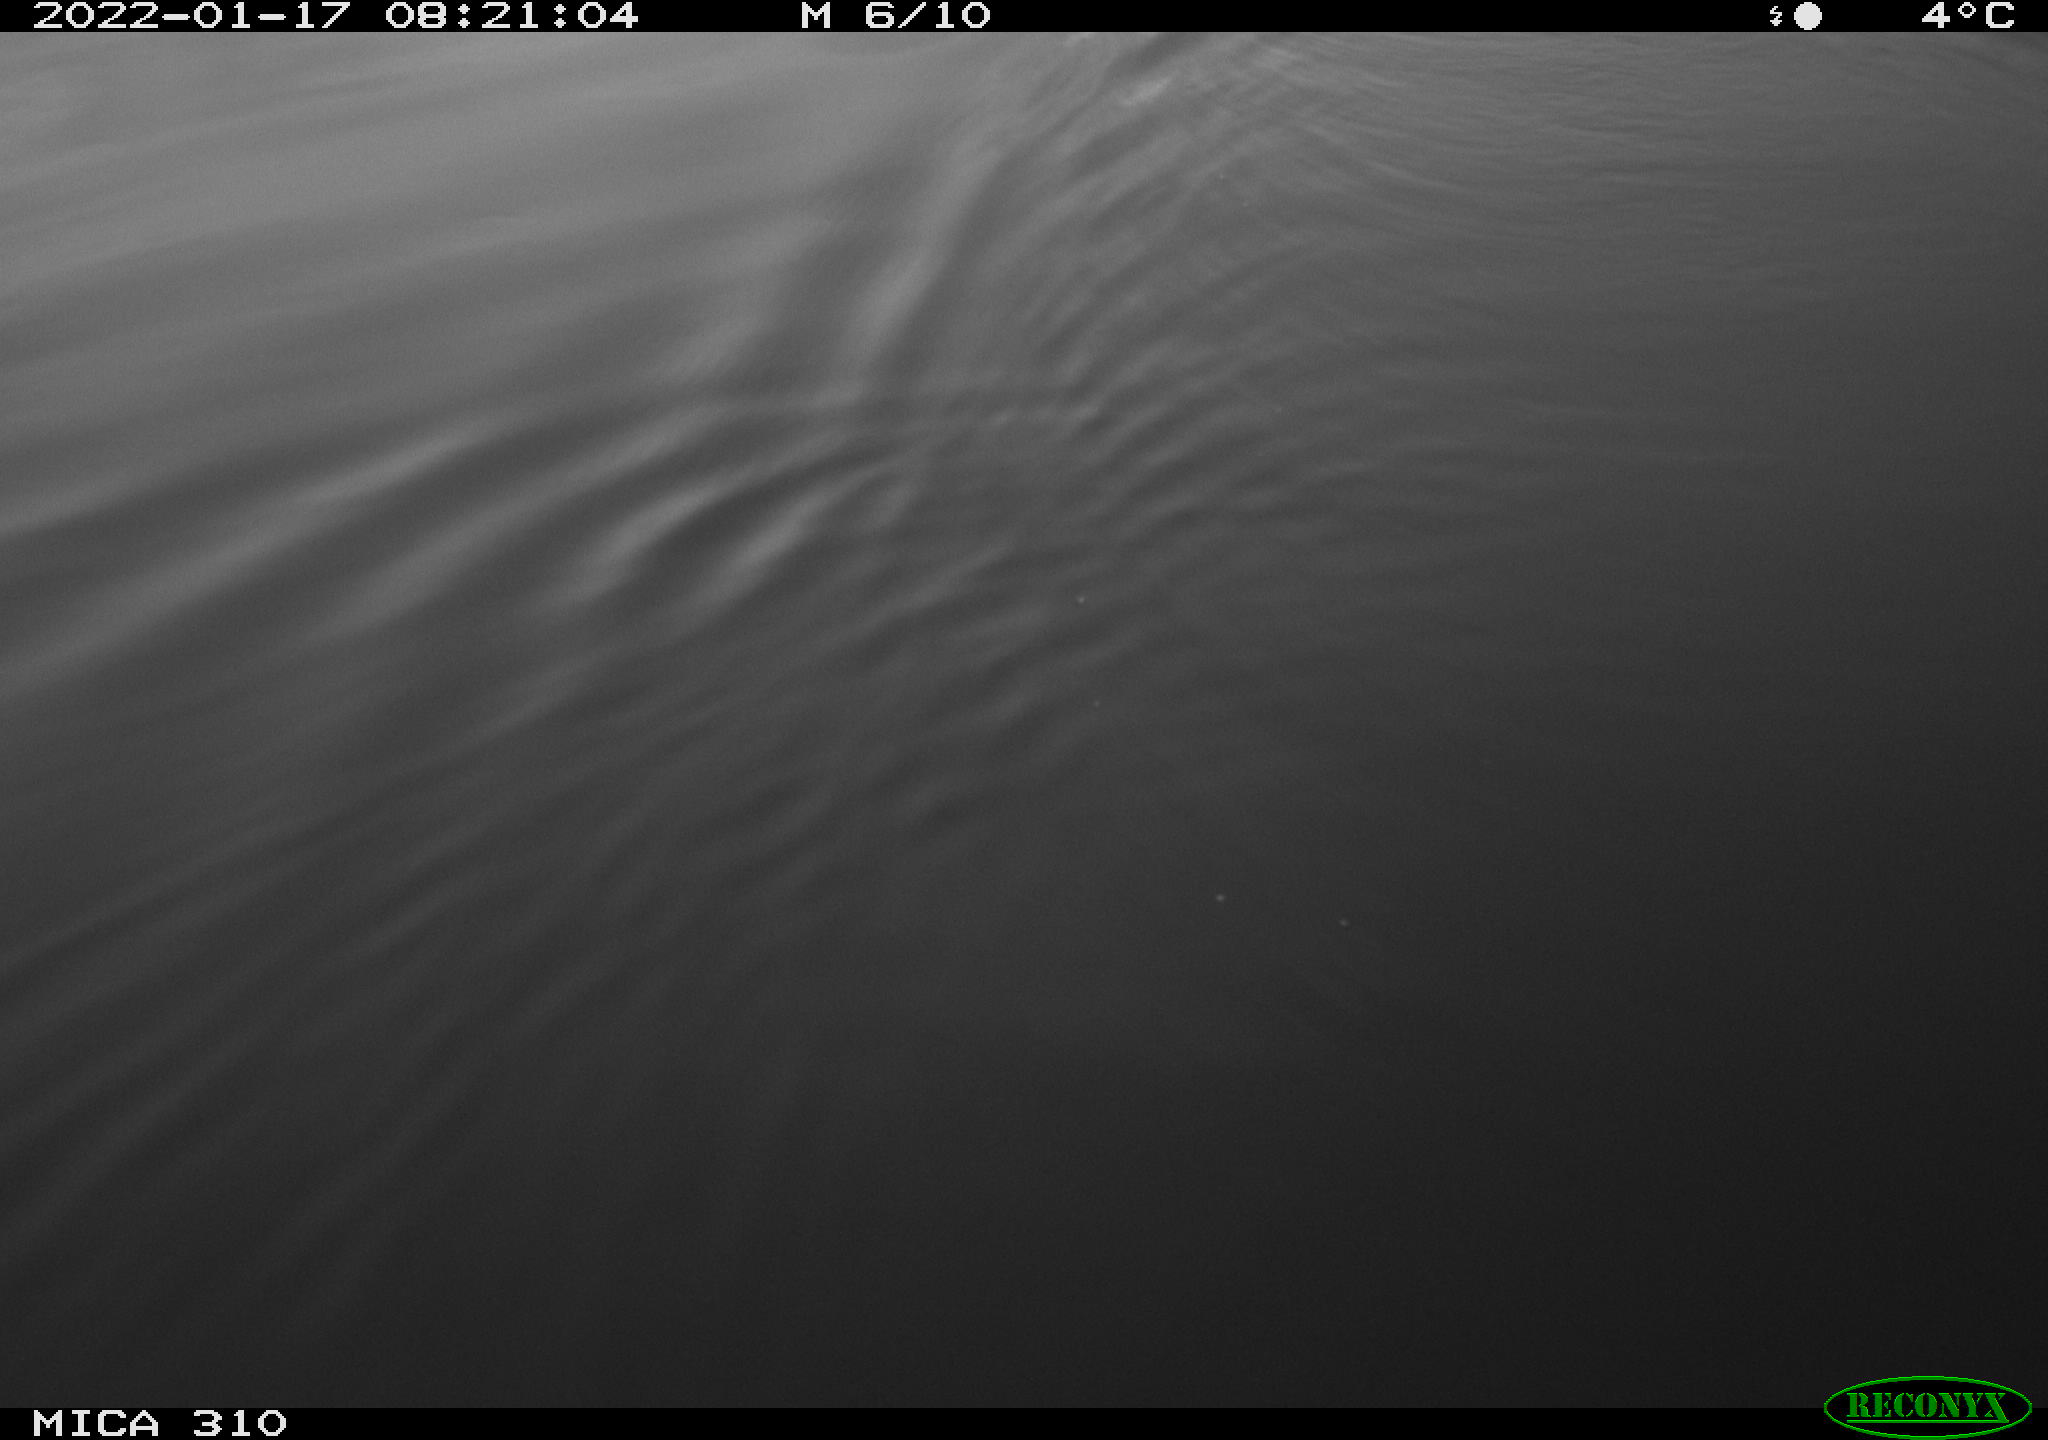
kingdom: Animalia
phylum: Chordata
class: Aves
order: Gruiformes
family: Rallidae
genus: Fulica
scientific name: Fulica atra
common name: Eurasian coot
